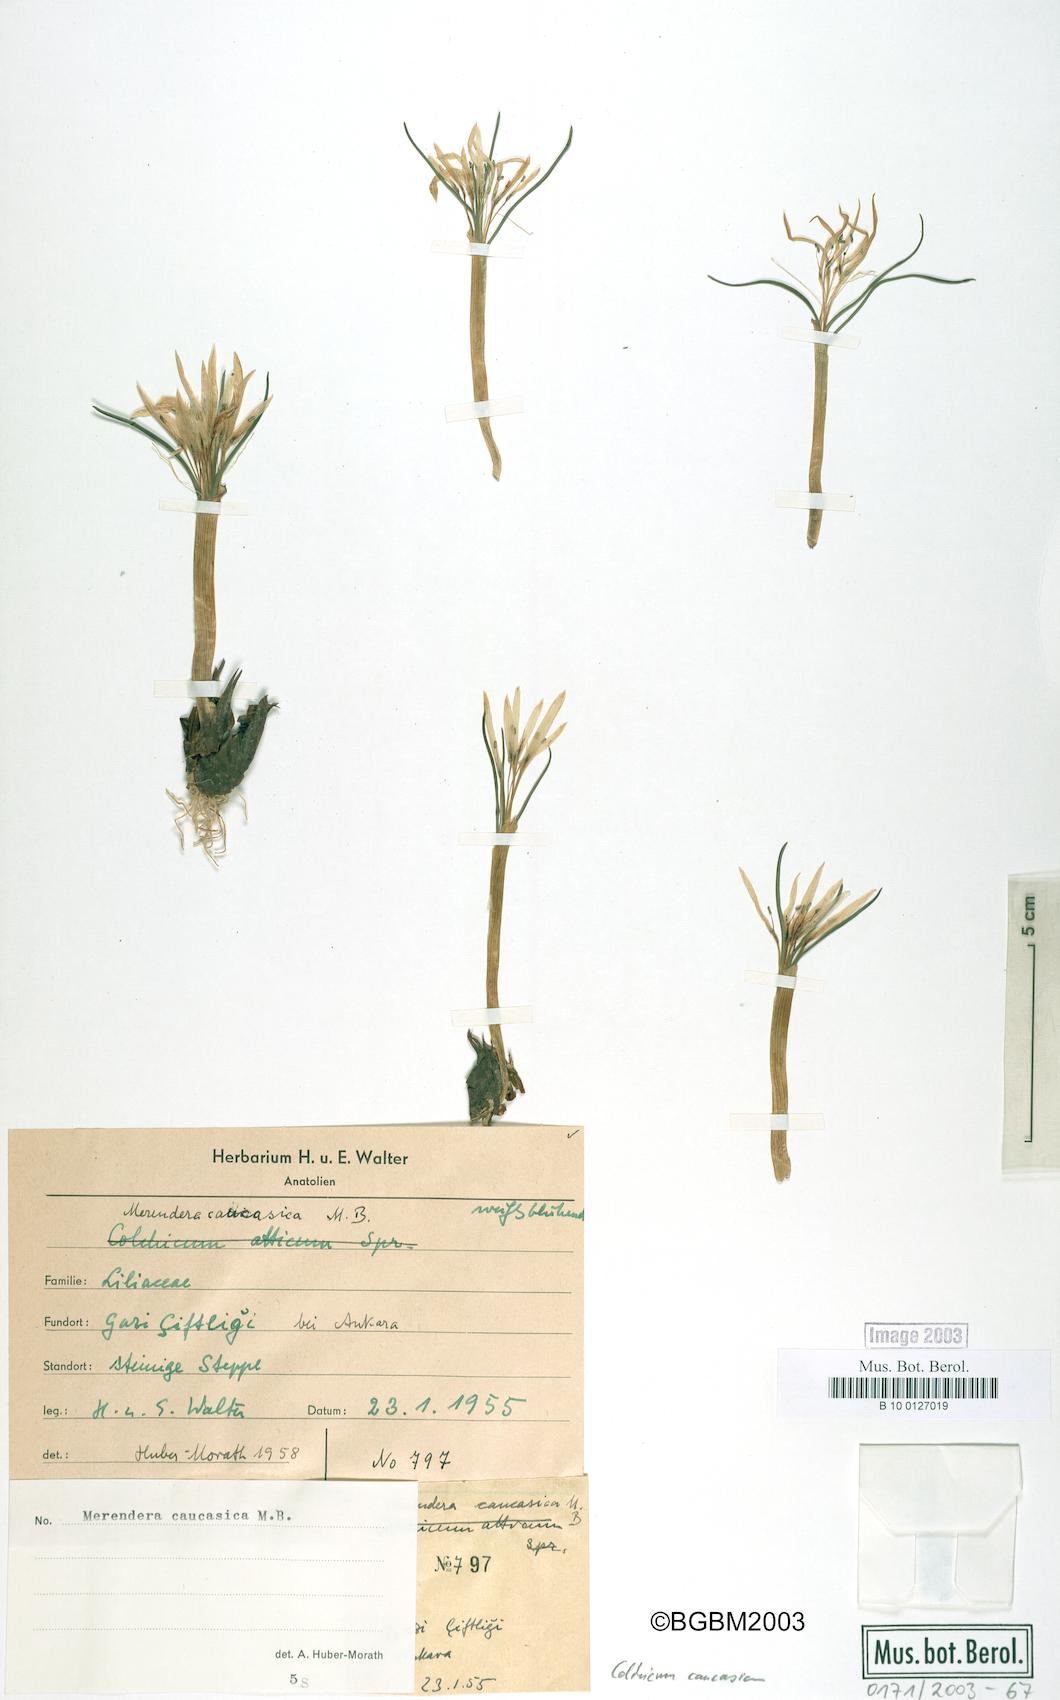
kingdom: Plantae
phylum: Tracheophyta
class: Liliopsida
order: Liliales
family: Colchicaceae
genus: Colchicum
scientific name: Colchicum trigynum
